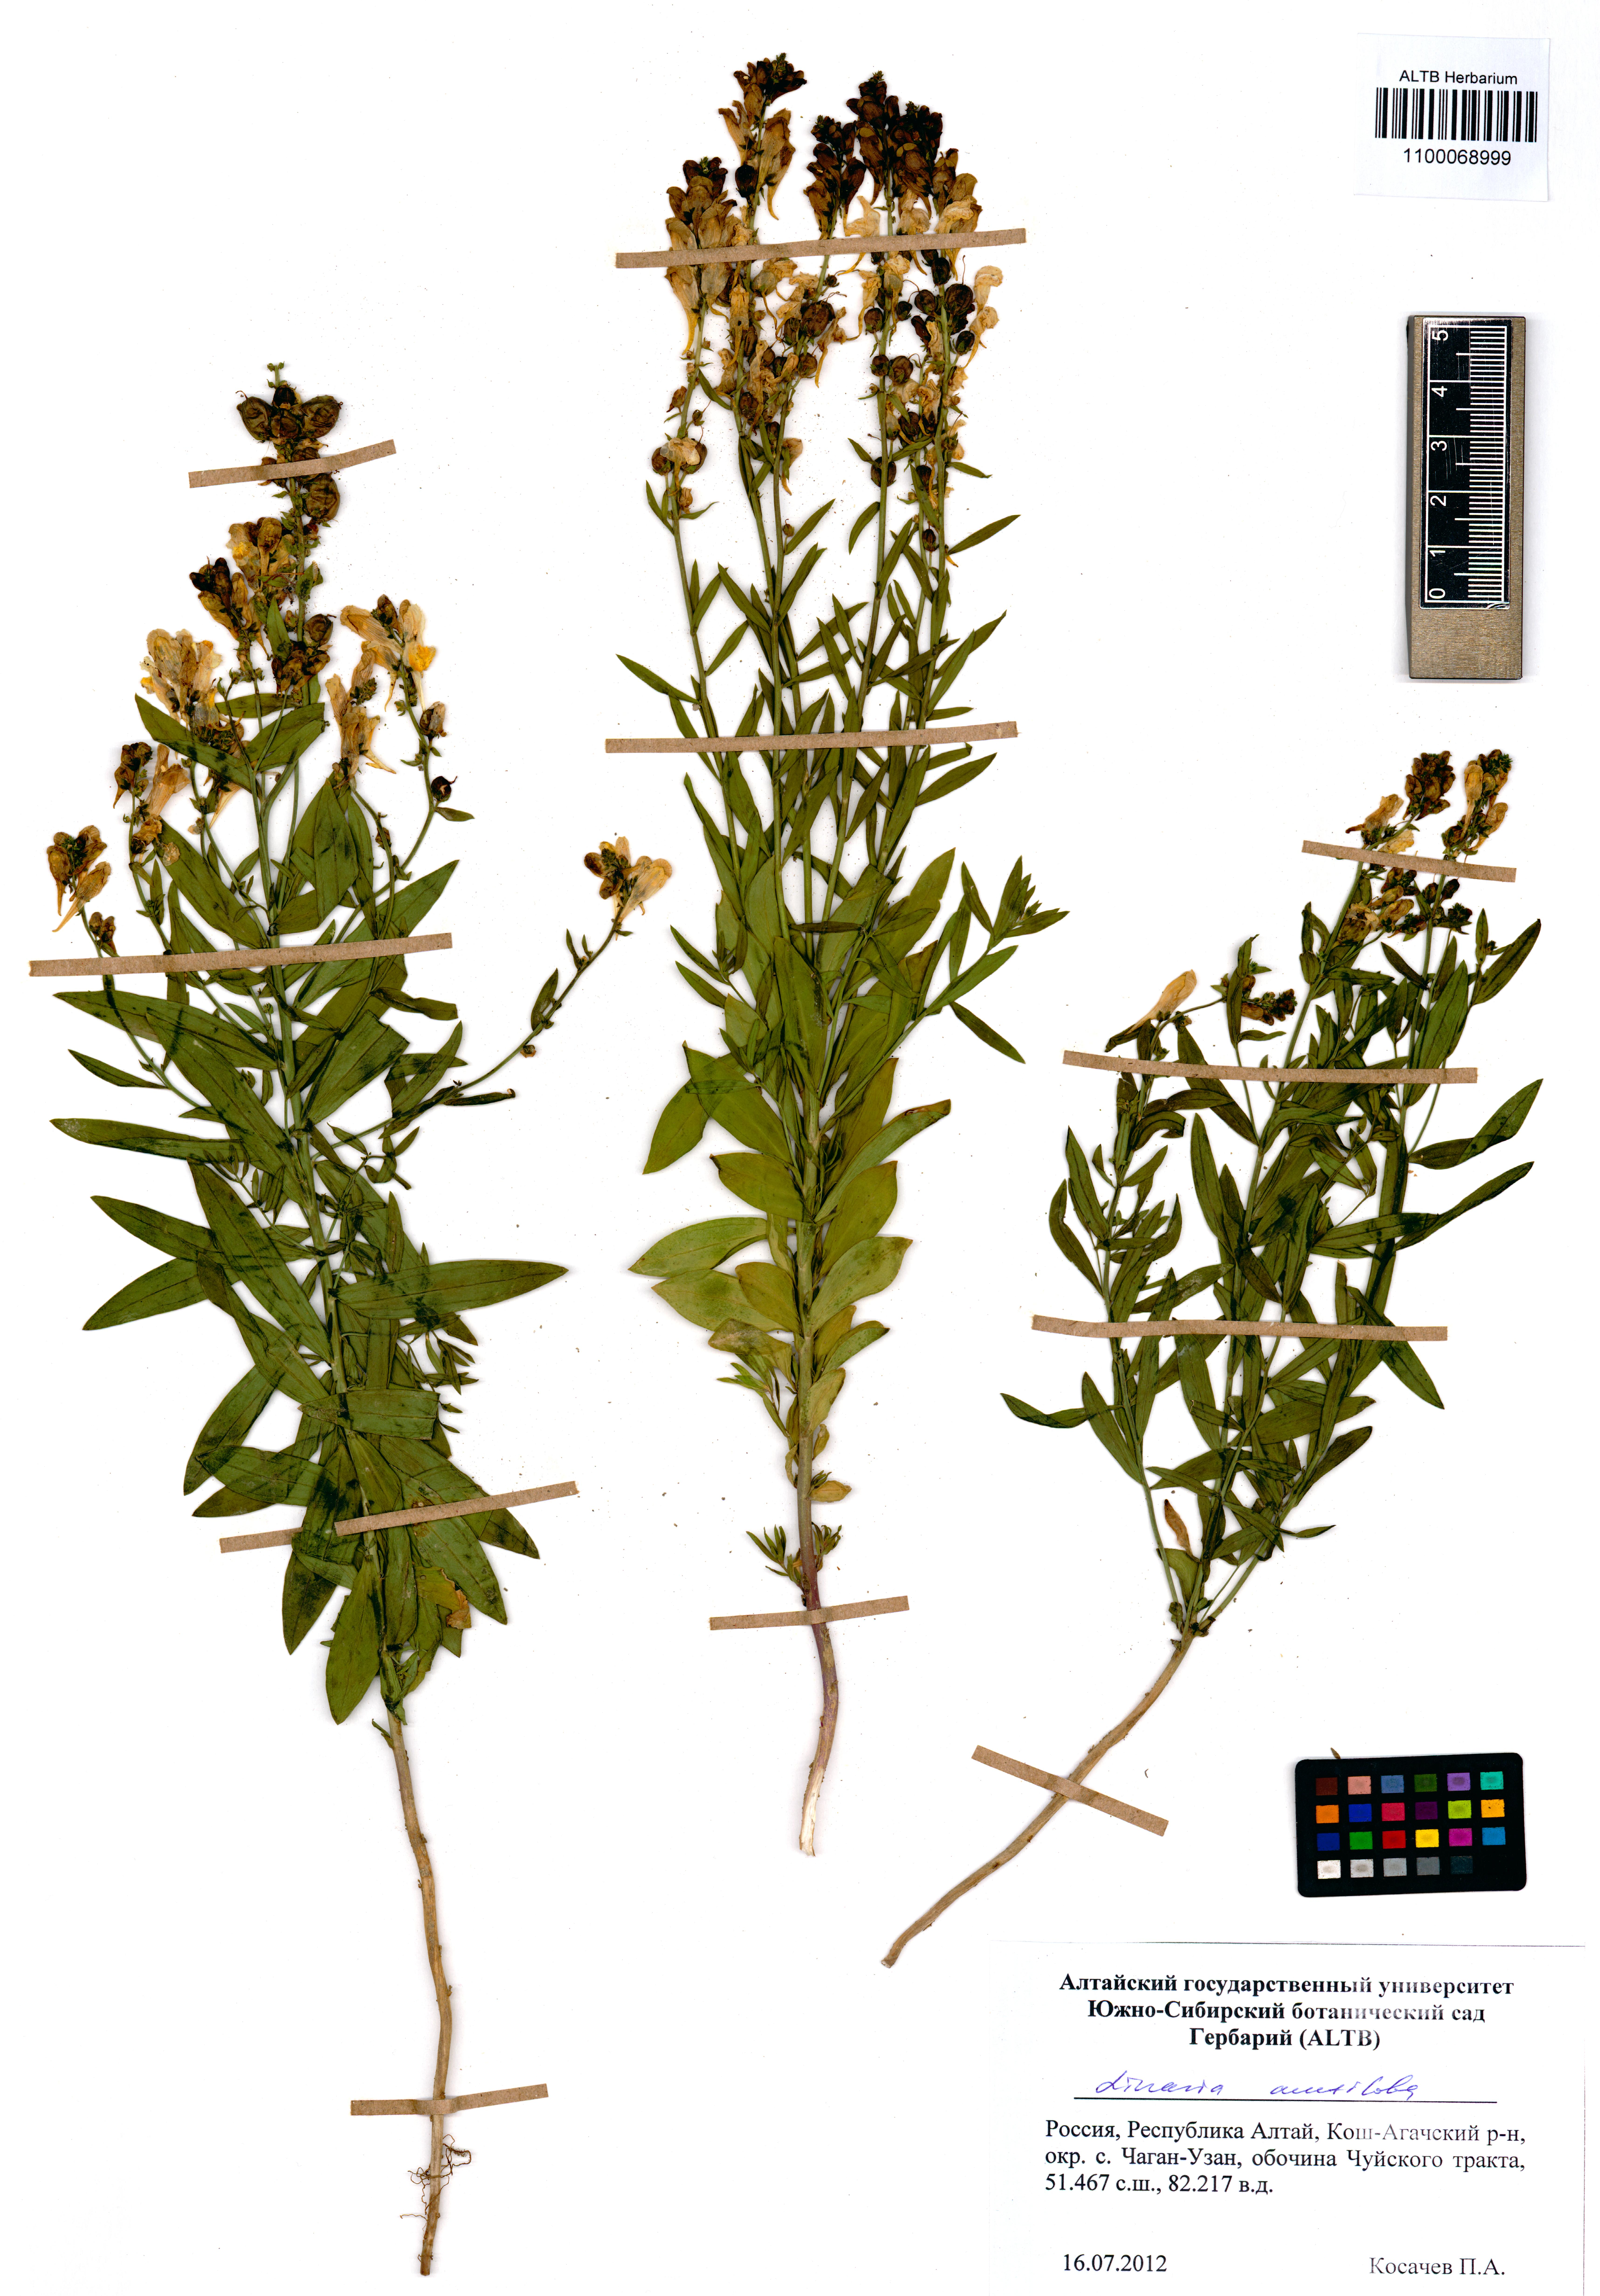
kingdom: Plantae
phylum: Tracheophyta
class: Magnoliopsida
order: Lamiales
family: Plantaginaceae
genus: Linaria
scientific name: Linaria acutiloba
